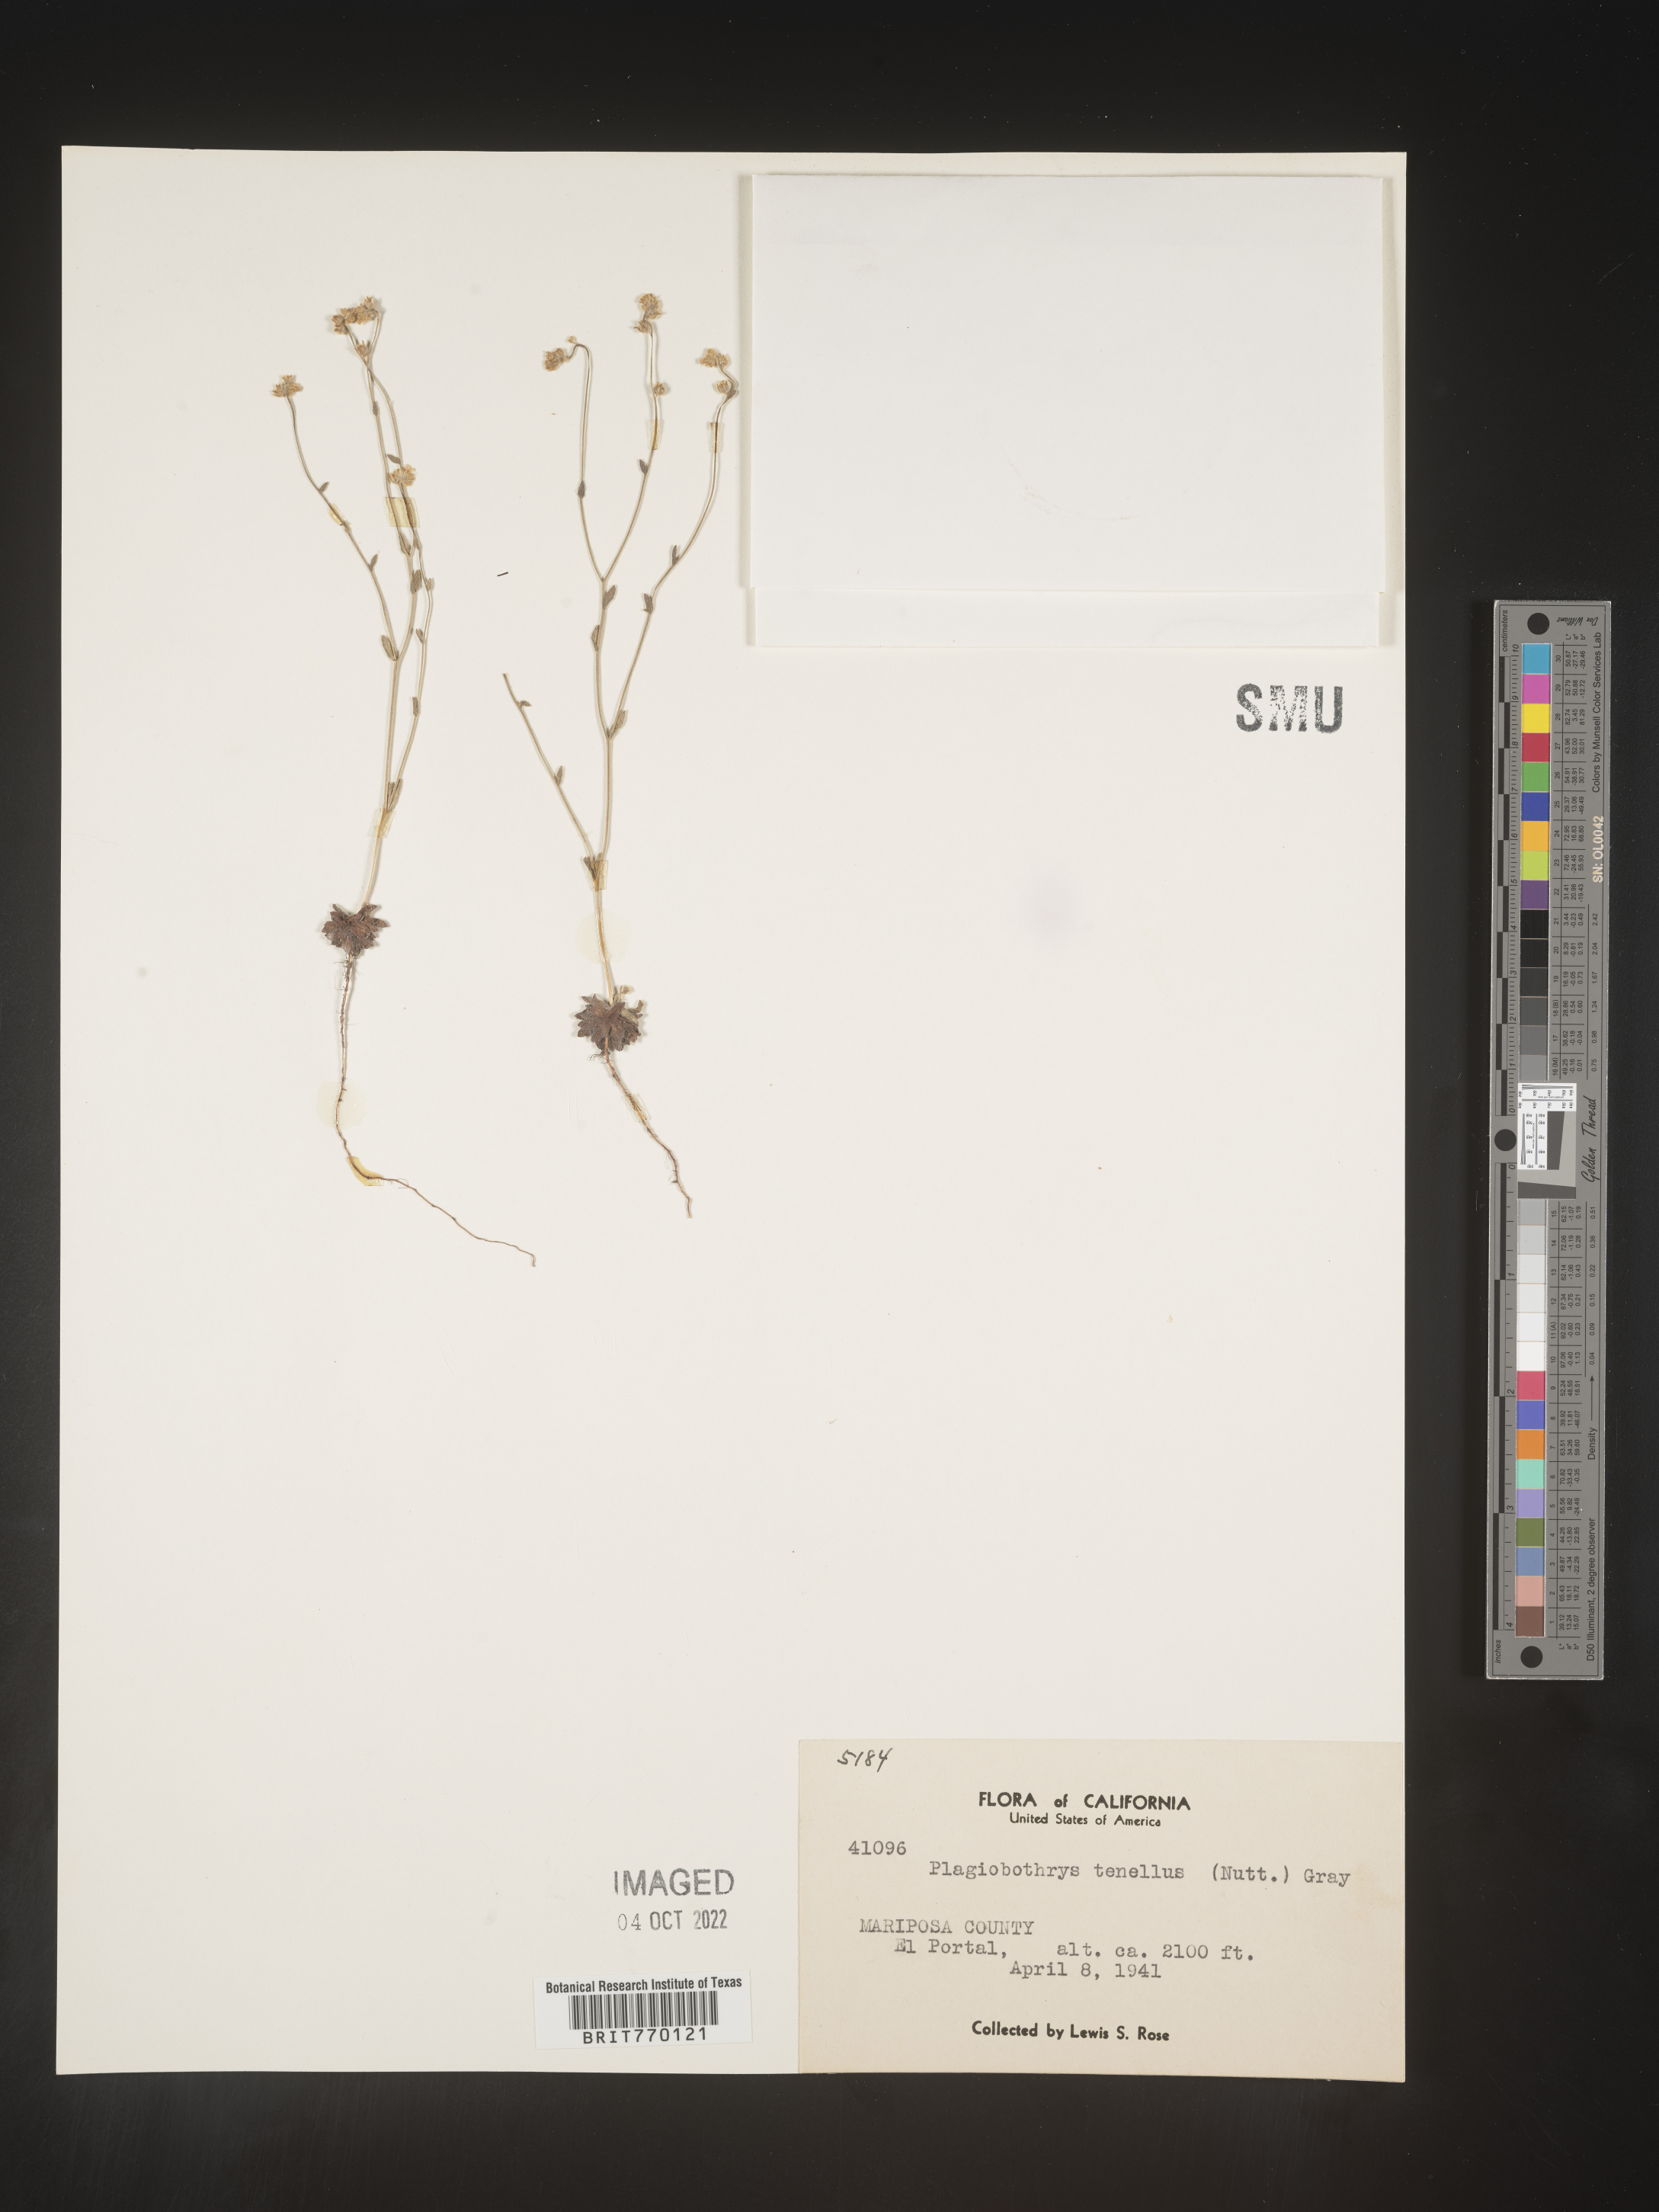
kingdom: Plantae
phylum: Tracheophyta
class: Magnoliopsida
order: Boraginales
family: Boraginaceae
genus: Plagiobothrys
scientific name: Plagiobothrys
